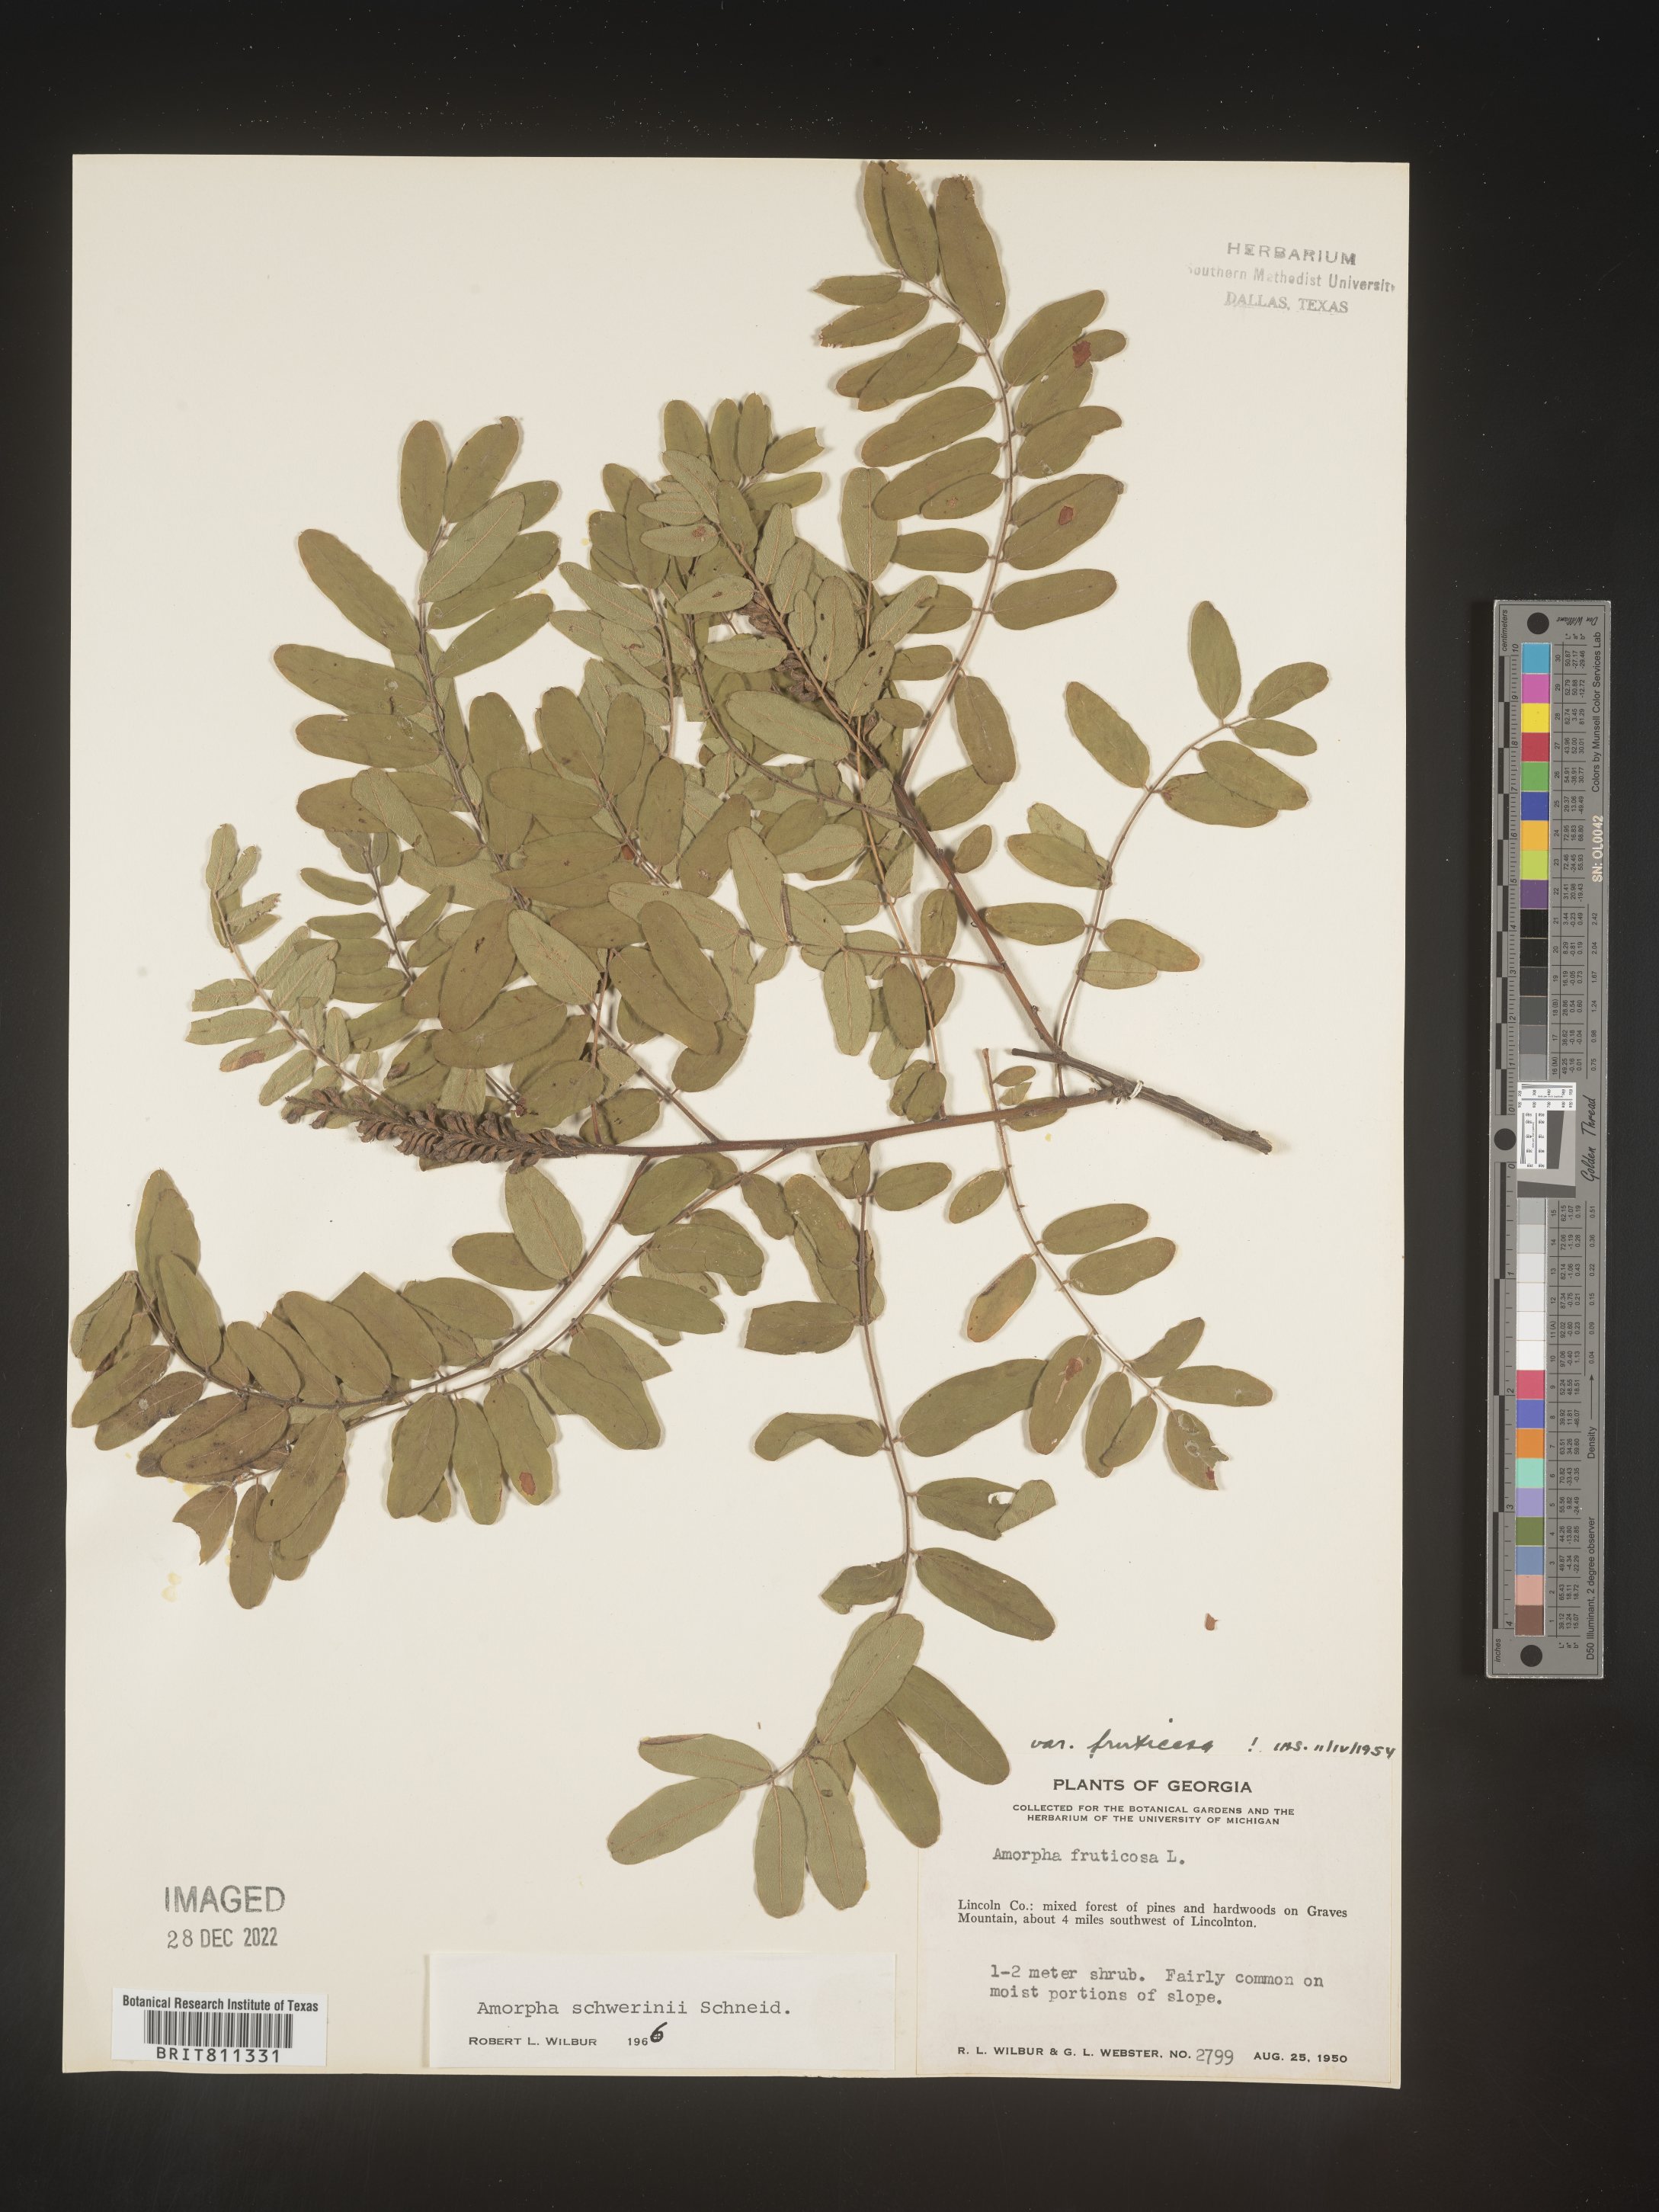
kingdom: Plantae
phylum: Tracheophyta
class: Magnoliopsida
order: Fabales
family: Fabaceae
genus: Amorpha
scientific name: Amorpha schwerinii
